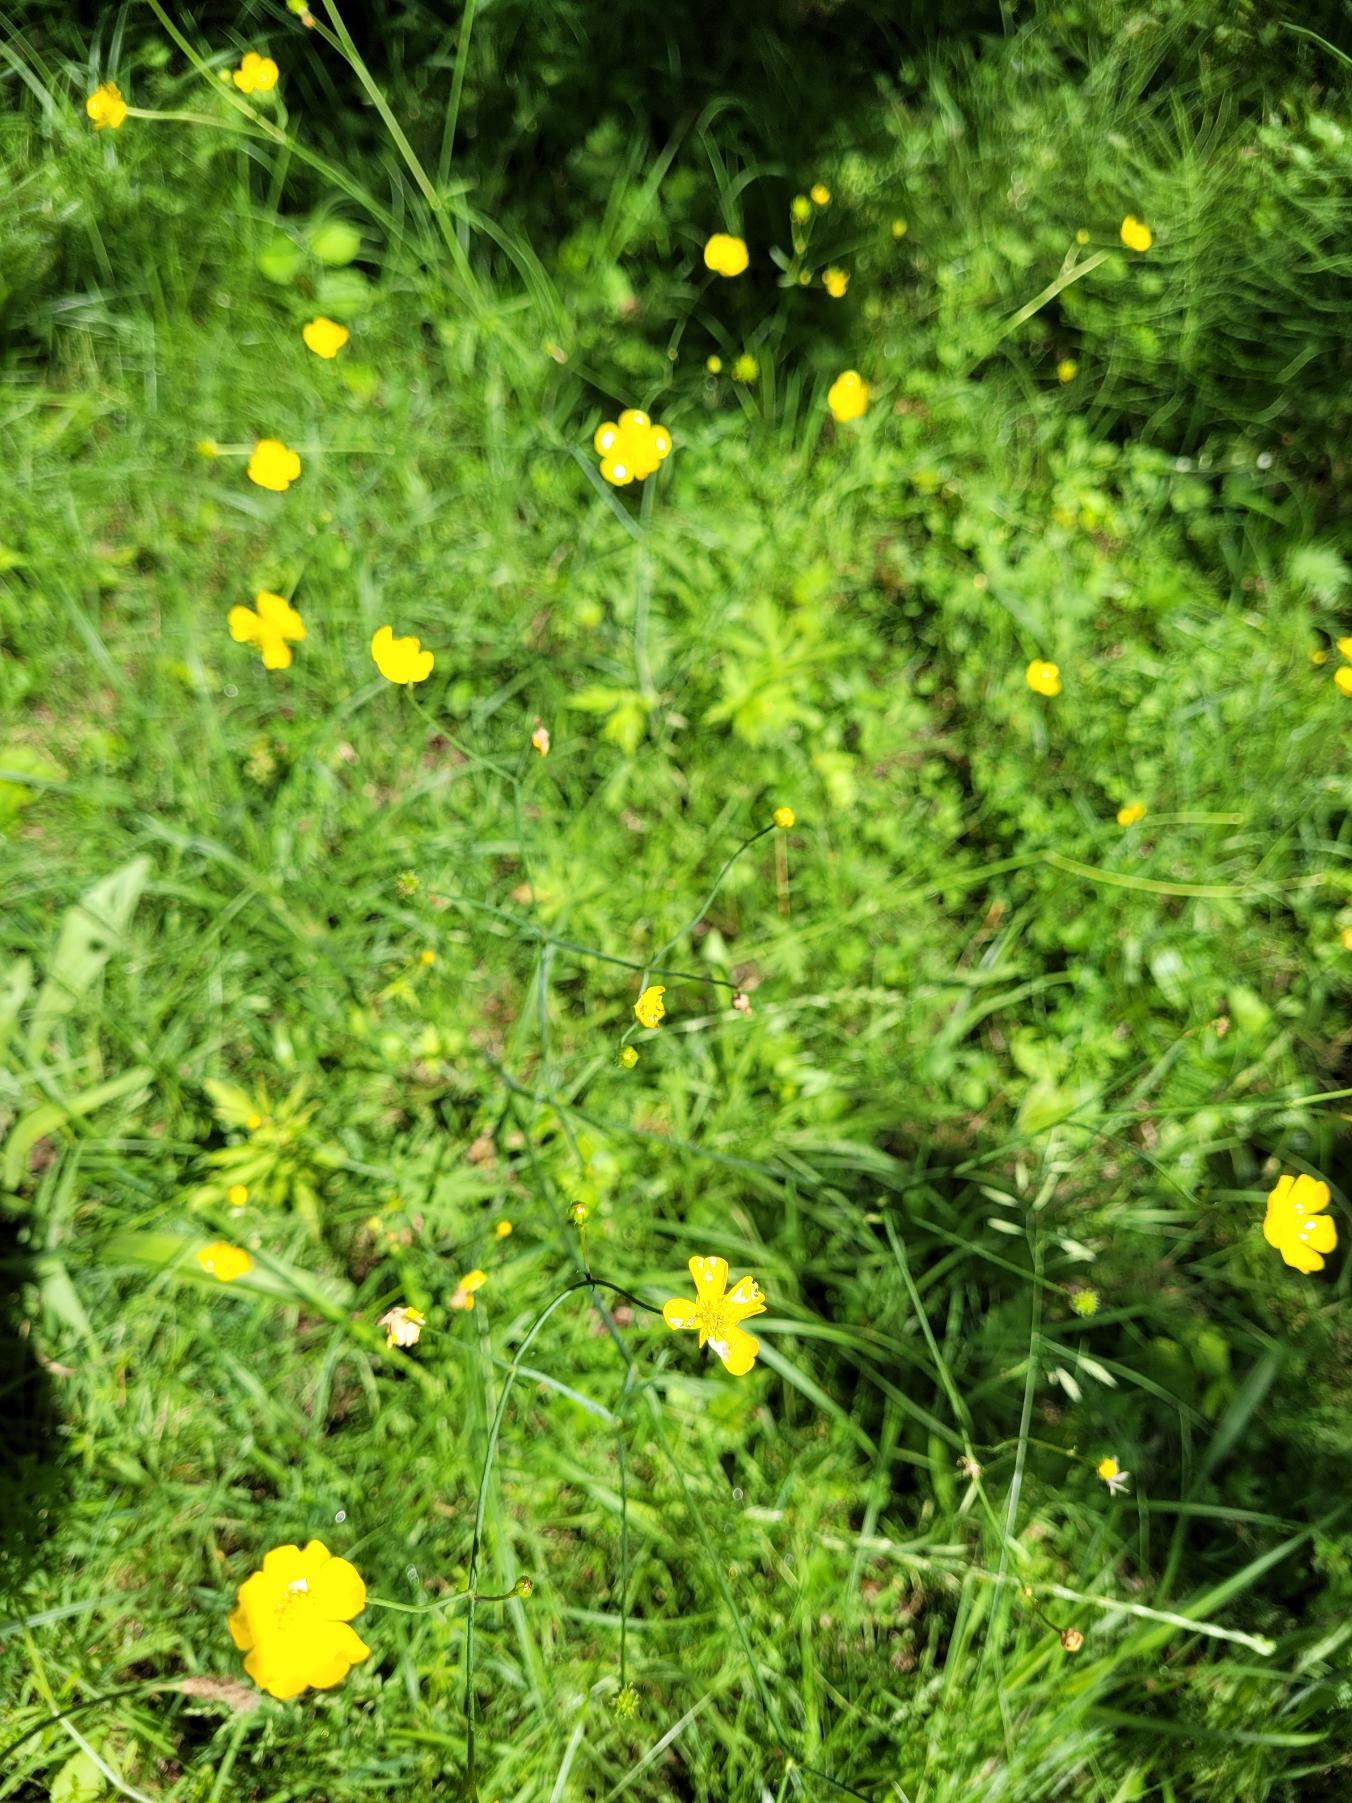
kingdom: Plantae
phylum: Tracheophyta
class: Magnoliopsida
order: Ranunculales
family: Ranunculaceae
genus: Ranunculus
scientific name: Ranunculus acris
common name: Bidende ranunkel
